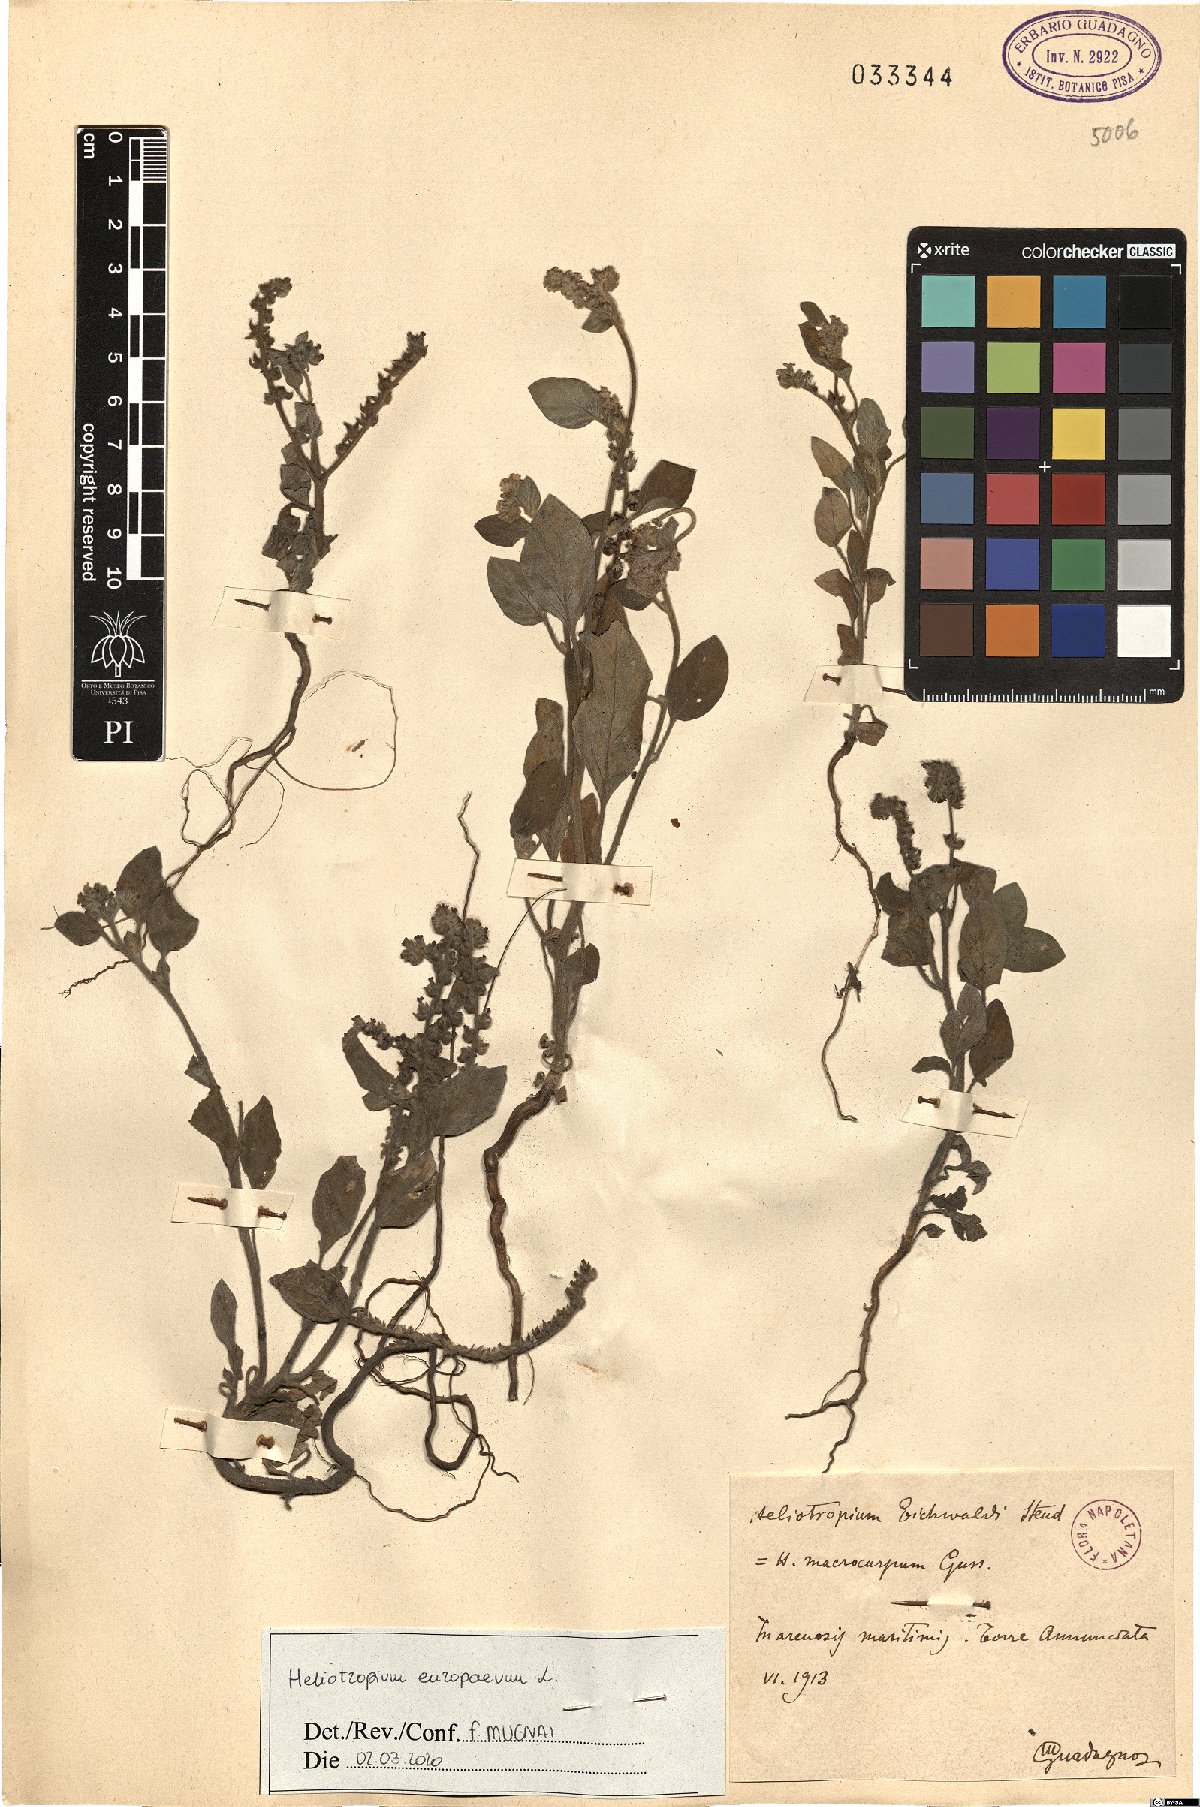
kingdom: Plantae
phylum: Tracheophyta
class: Magnoliopsida
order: Boraginales
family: Heliotropiaceae
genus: Heliotropium
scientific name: Heliotropium europaeum
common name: European heliotrope
